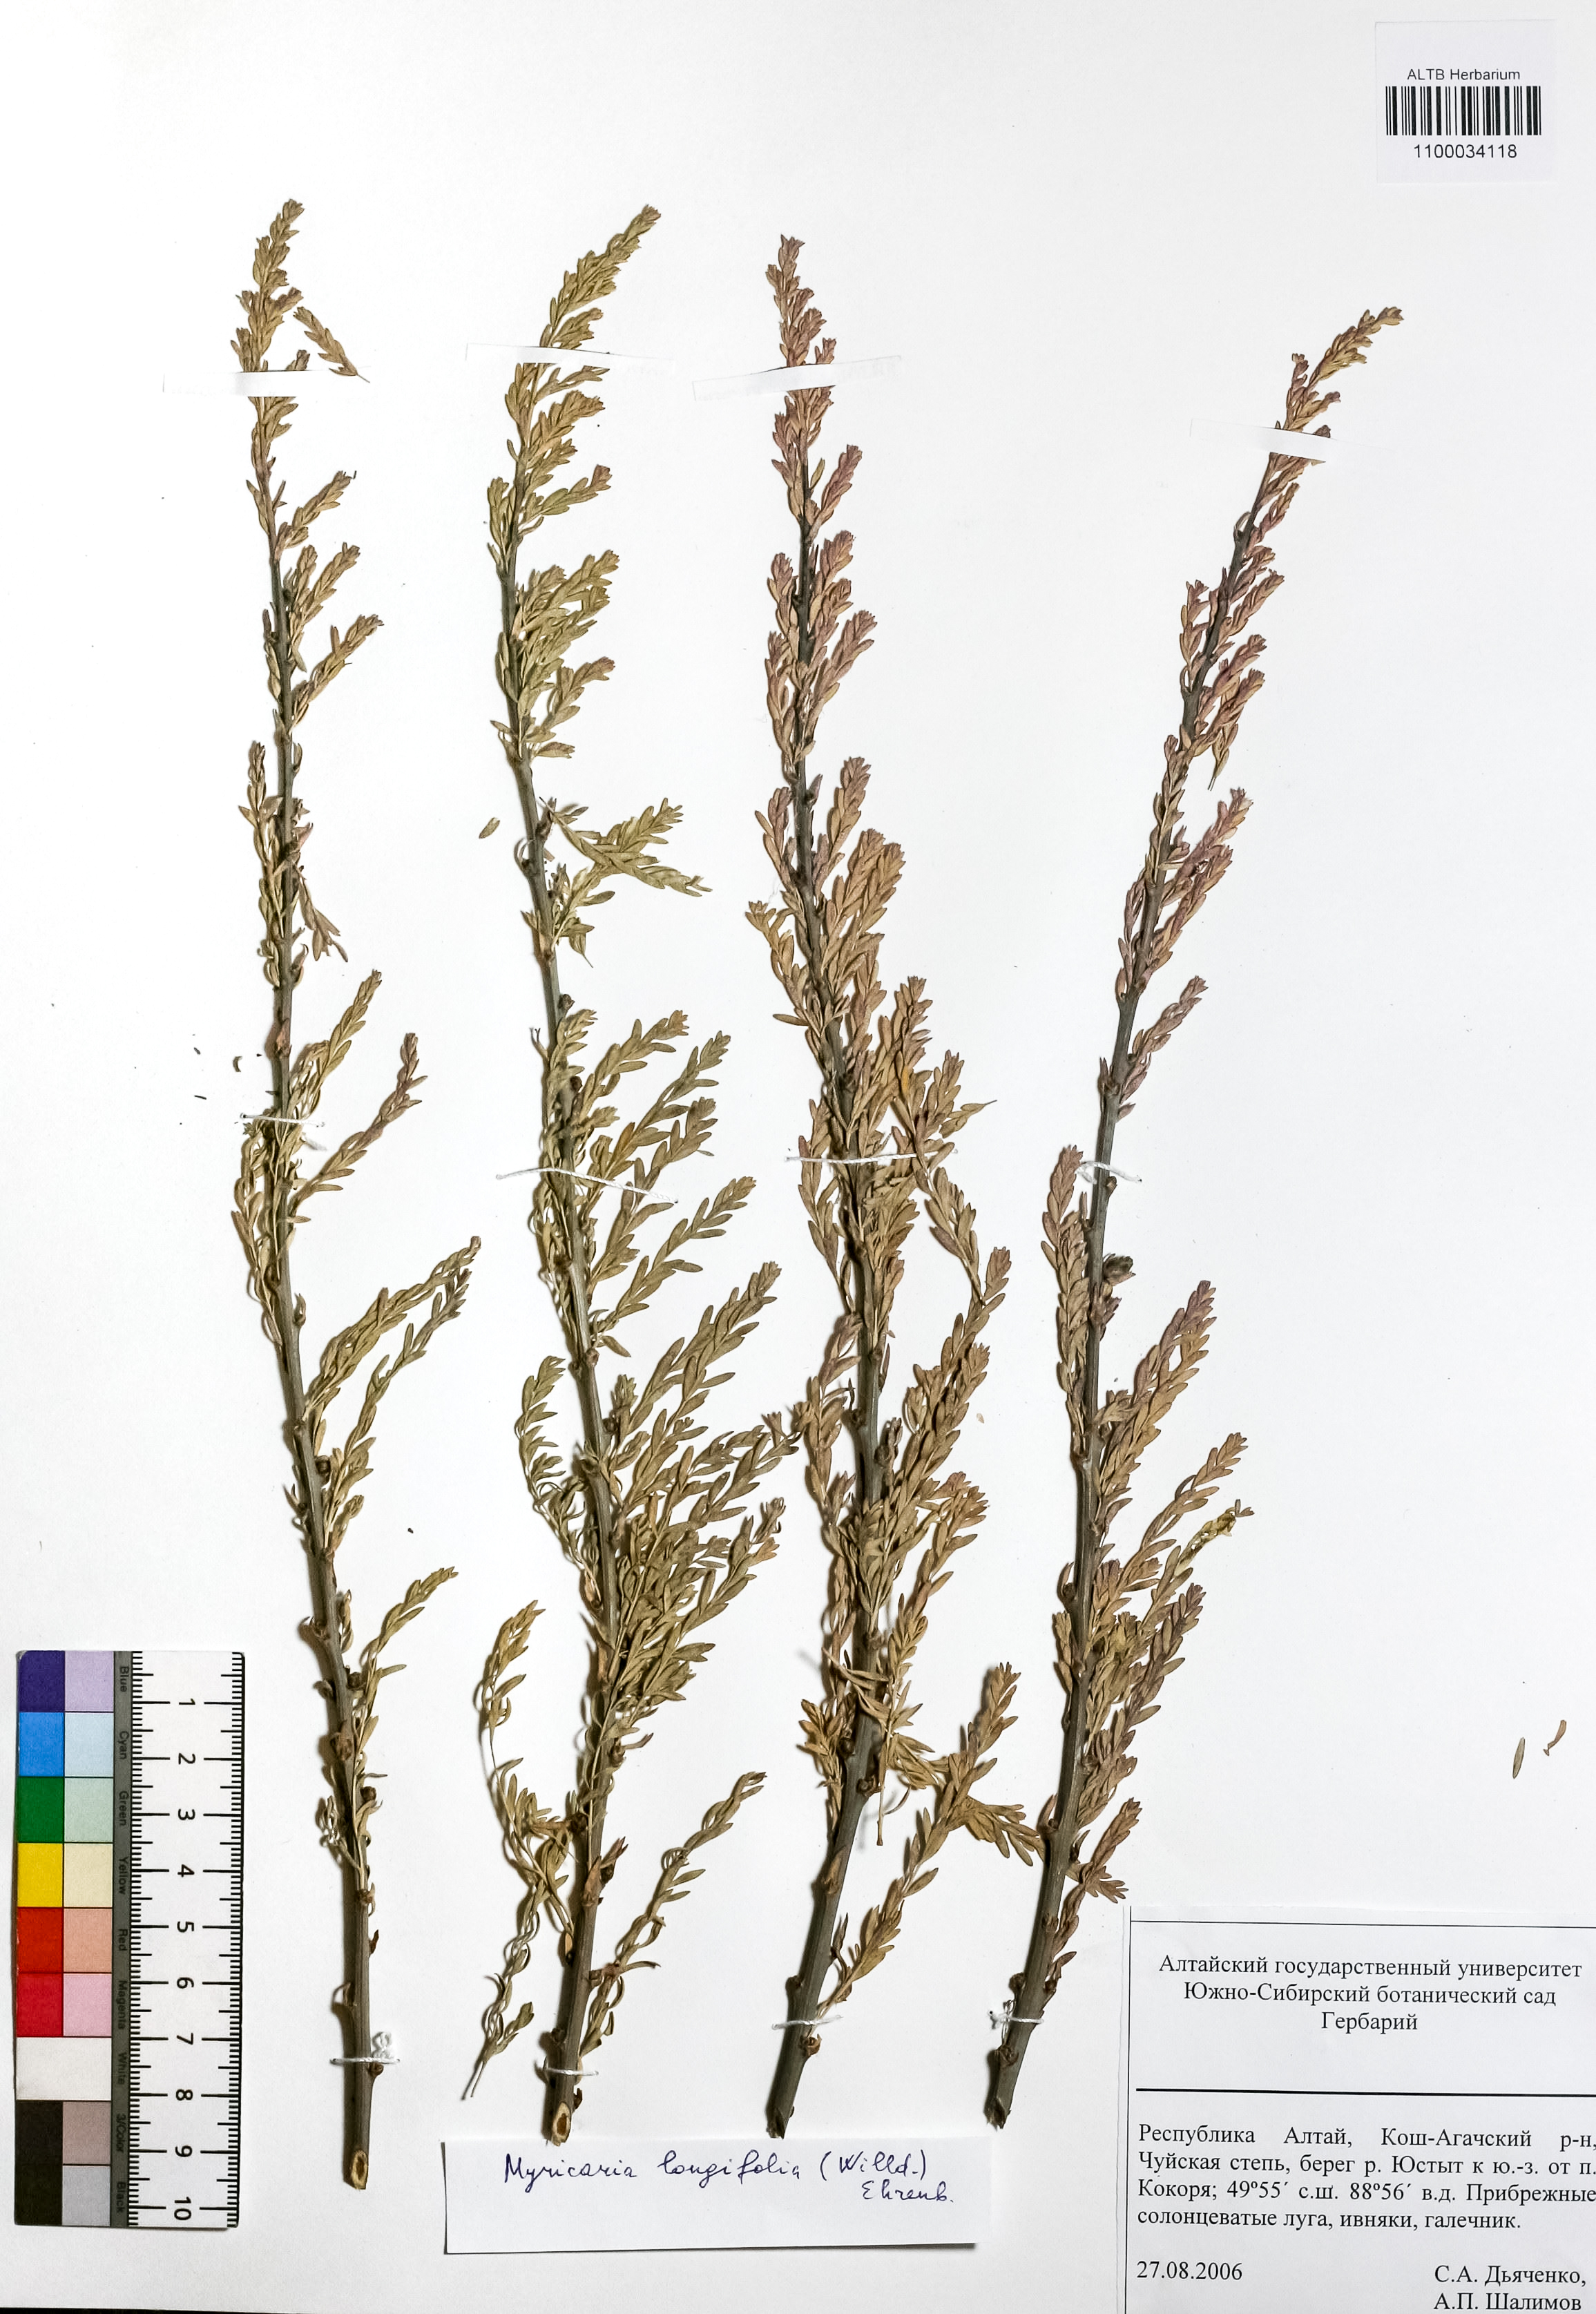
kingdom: Plantae
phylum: Tracheophyta
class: Magnoliopsida
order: Caryophyllales
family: Tamaricaceae
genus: Myricaria
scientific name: Myricaria longifolia
